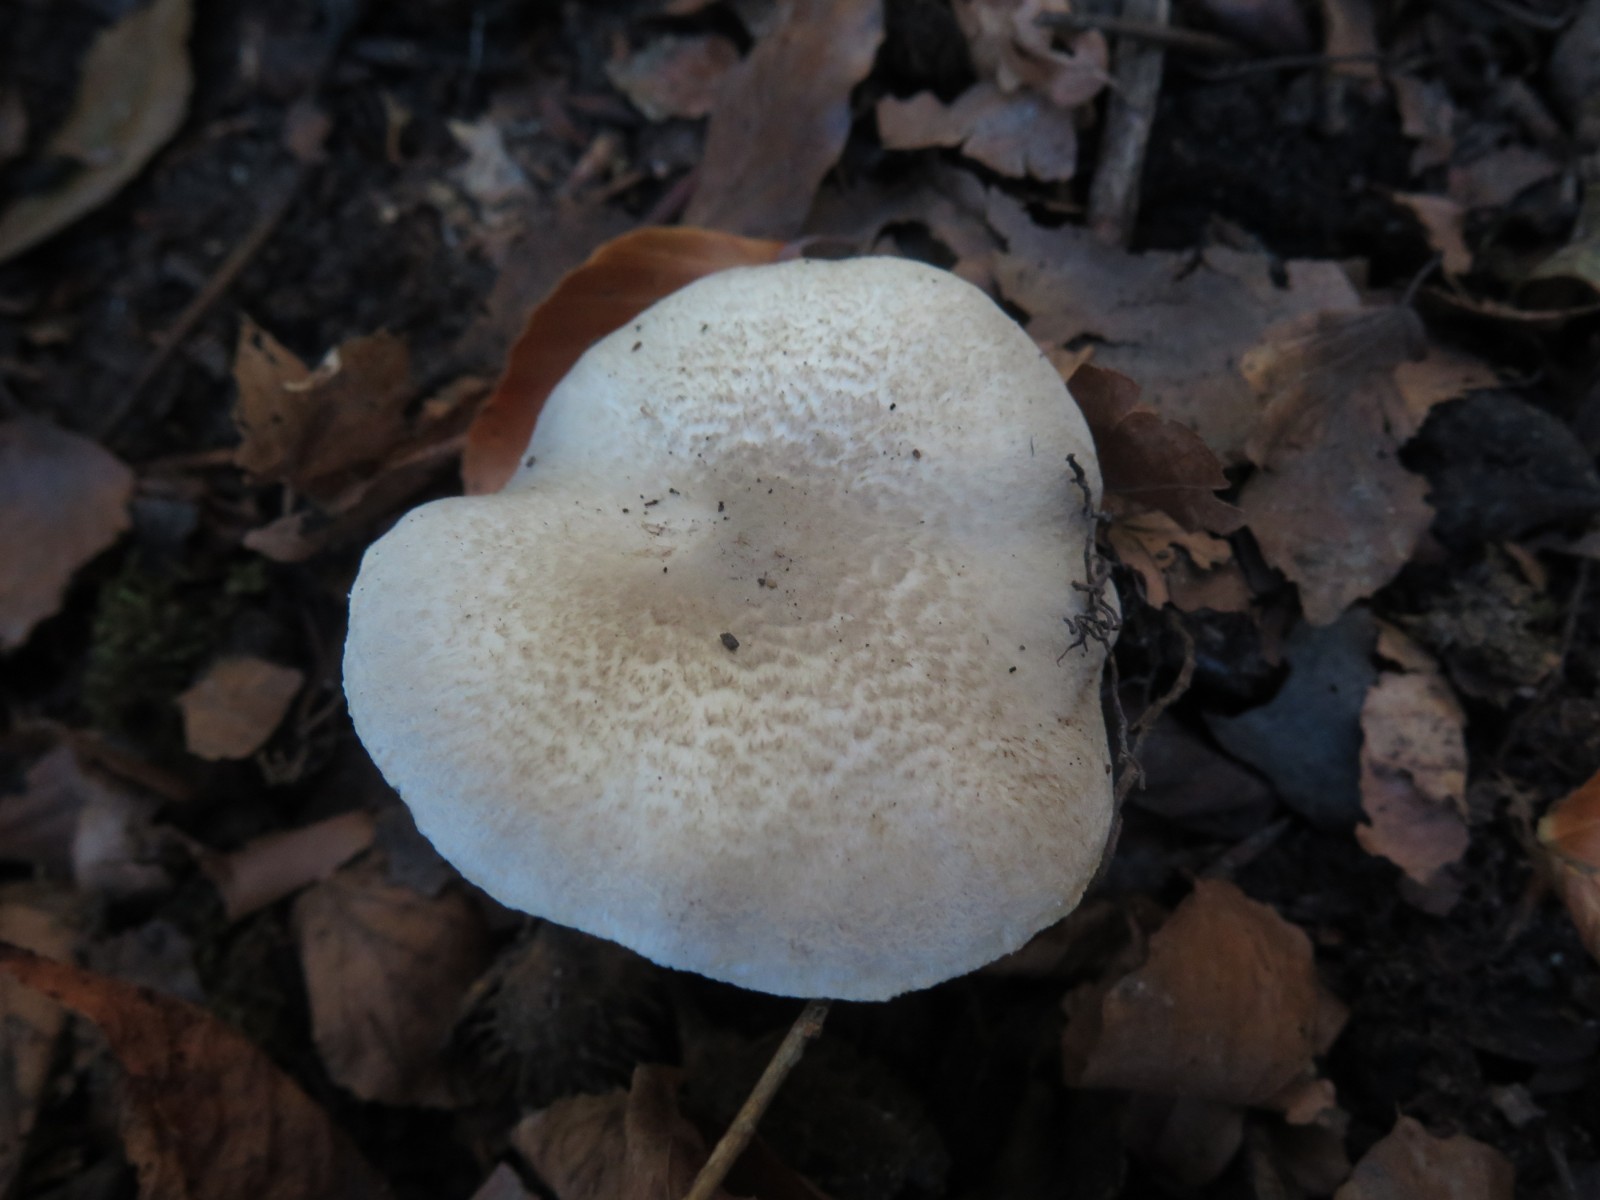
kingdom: Fungi
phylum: Basidiomycota
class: Agaricomycetes
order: Agaricales
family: Tricholomataceae
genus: Tricholoma
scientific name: Tricholoma scalpturatum
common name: gulplettet ridderhat
